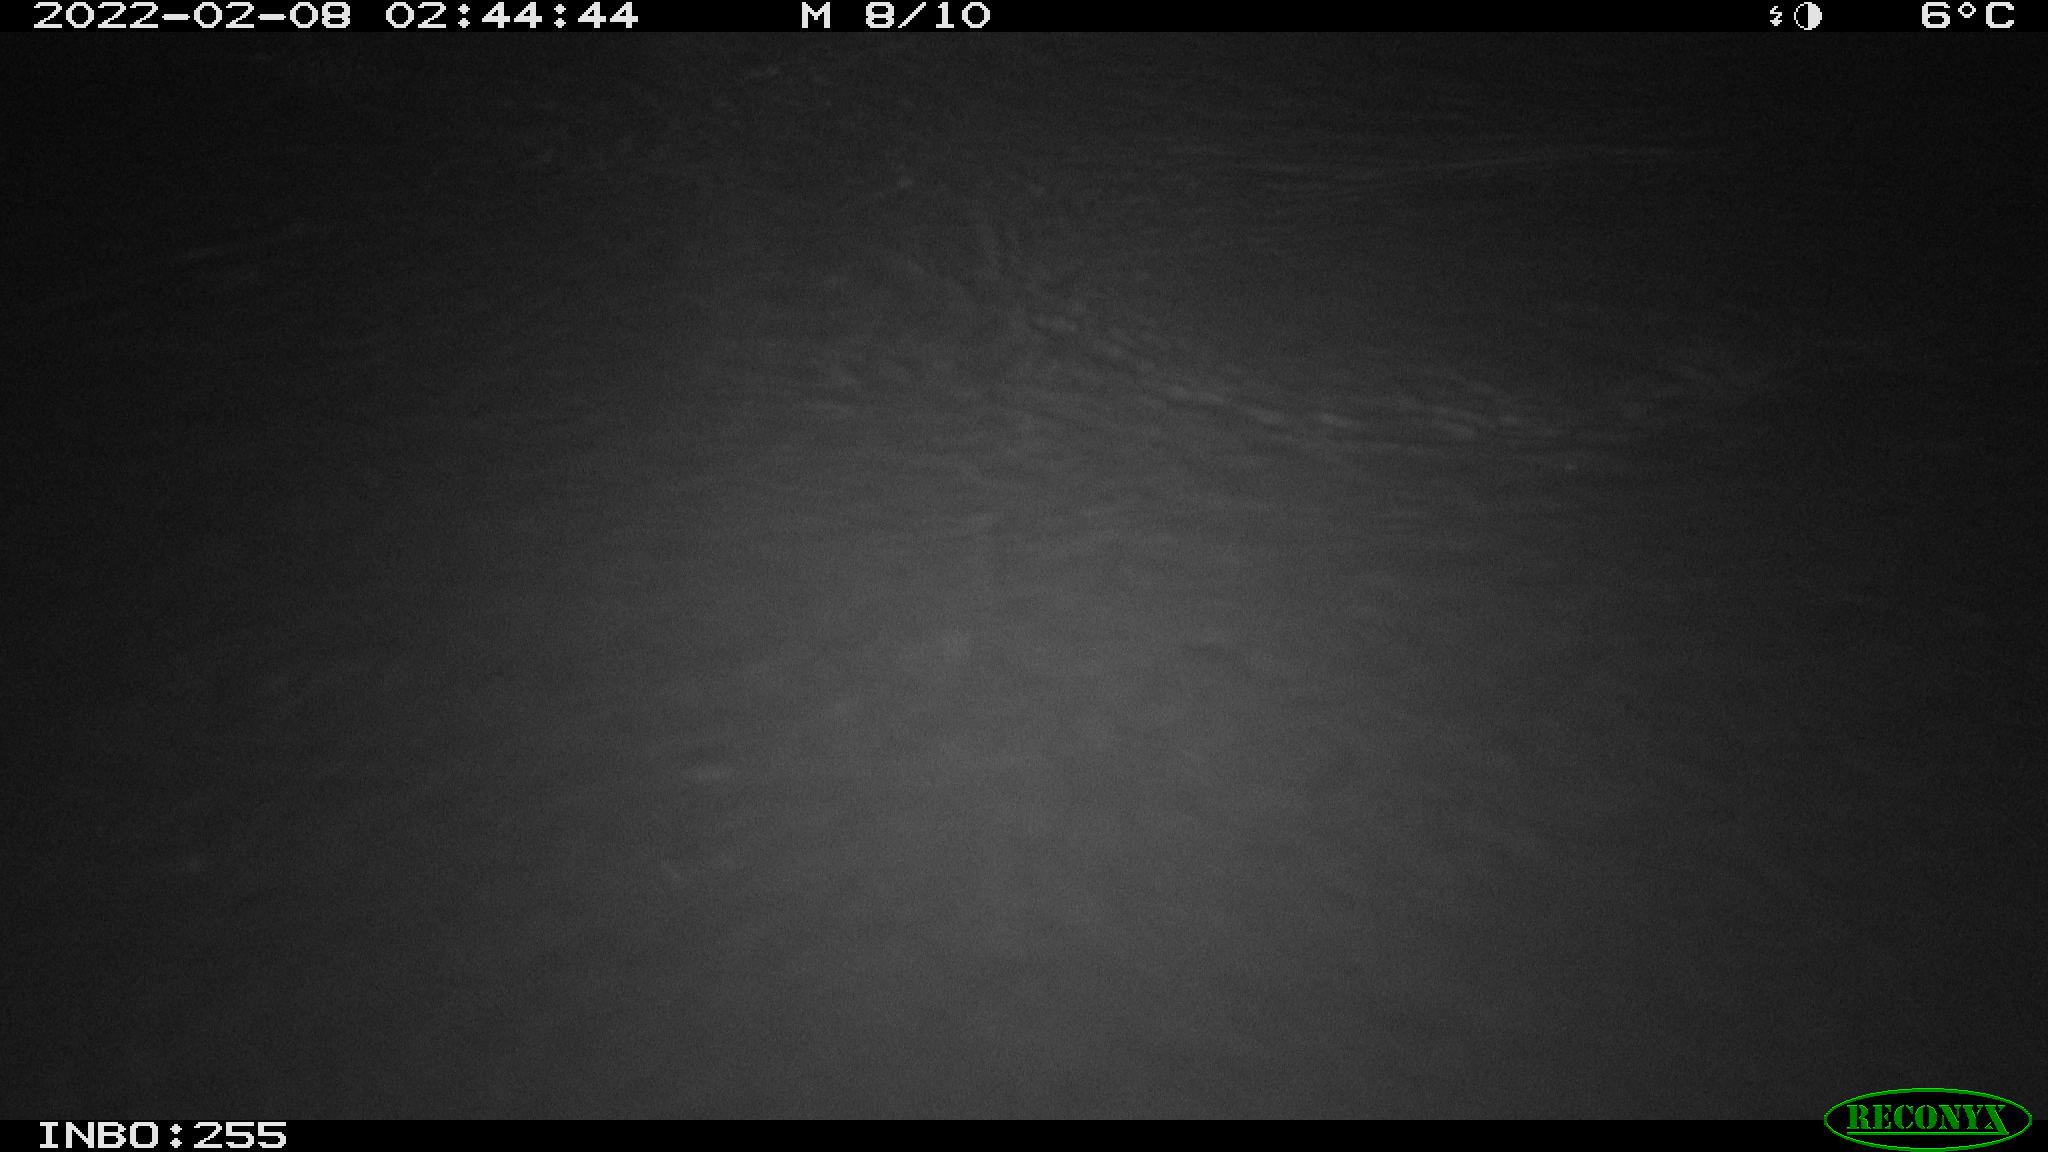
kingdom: Animalia
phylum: Chordata
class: Mammalia
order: Rodentia
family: Muridae
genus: Rattus
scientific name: Rattus norvegicus
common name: Brown rat
